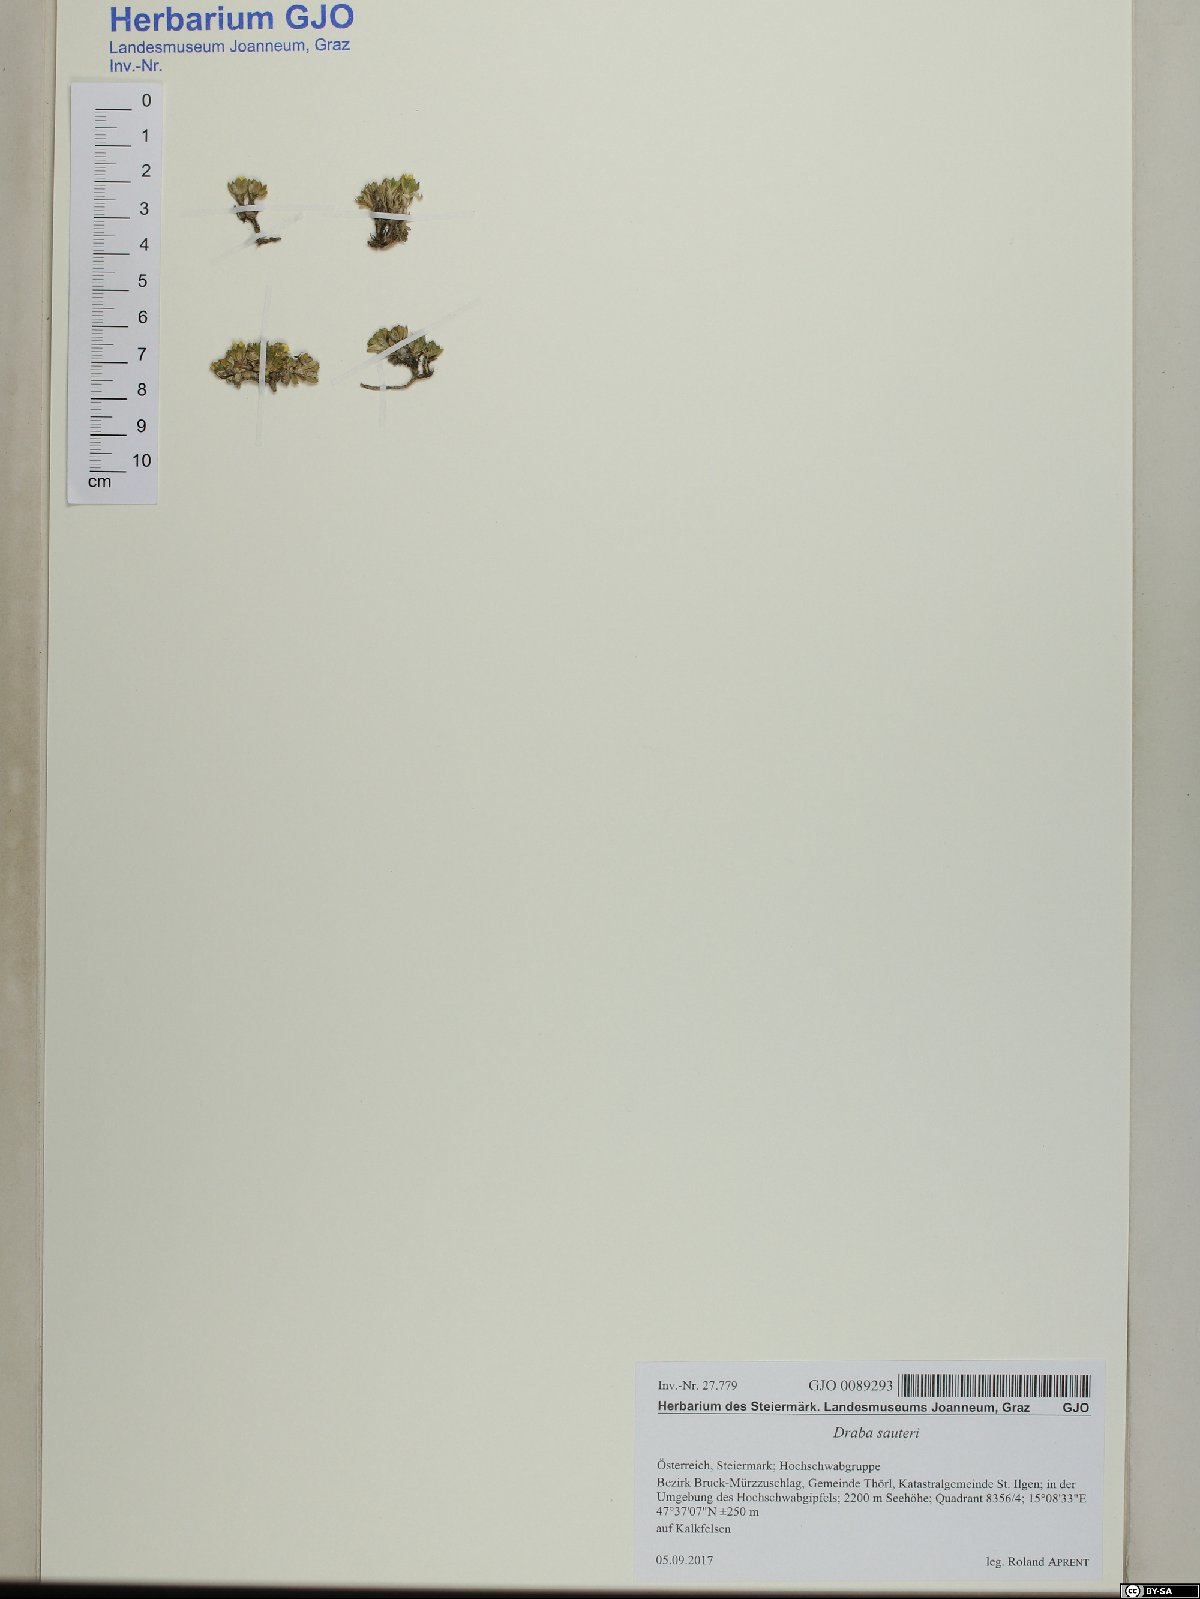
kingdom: Plantae
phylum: Tracheophyta
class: Magnoliopsida
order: Brassicales
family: Brassicaceae
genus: Draba
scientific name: Draba sauteri
